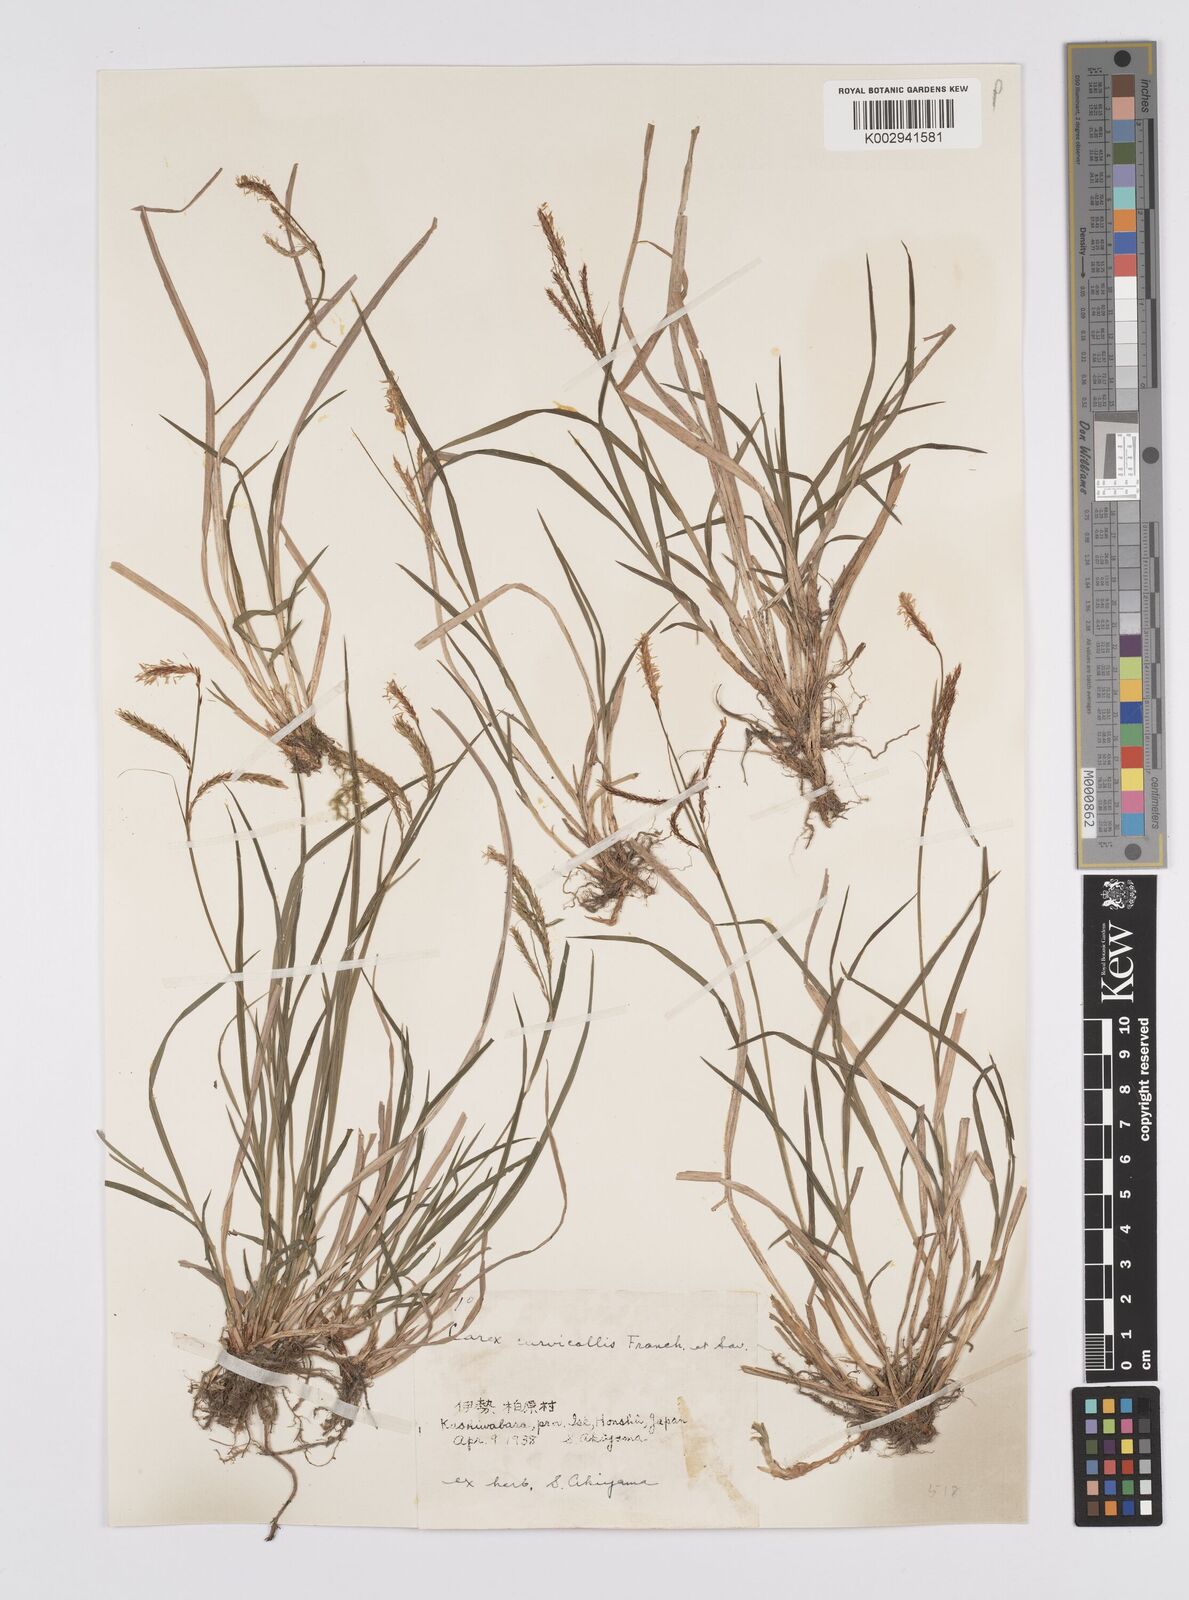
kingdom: Plantae
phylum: Tracheophyta
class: Liliopsida
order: Poales
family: Cyperaceae
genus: Carex
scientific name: Carex curvicollis
